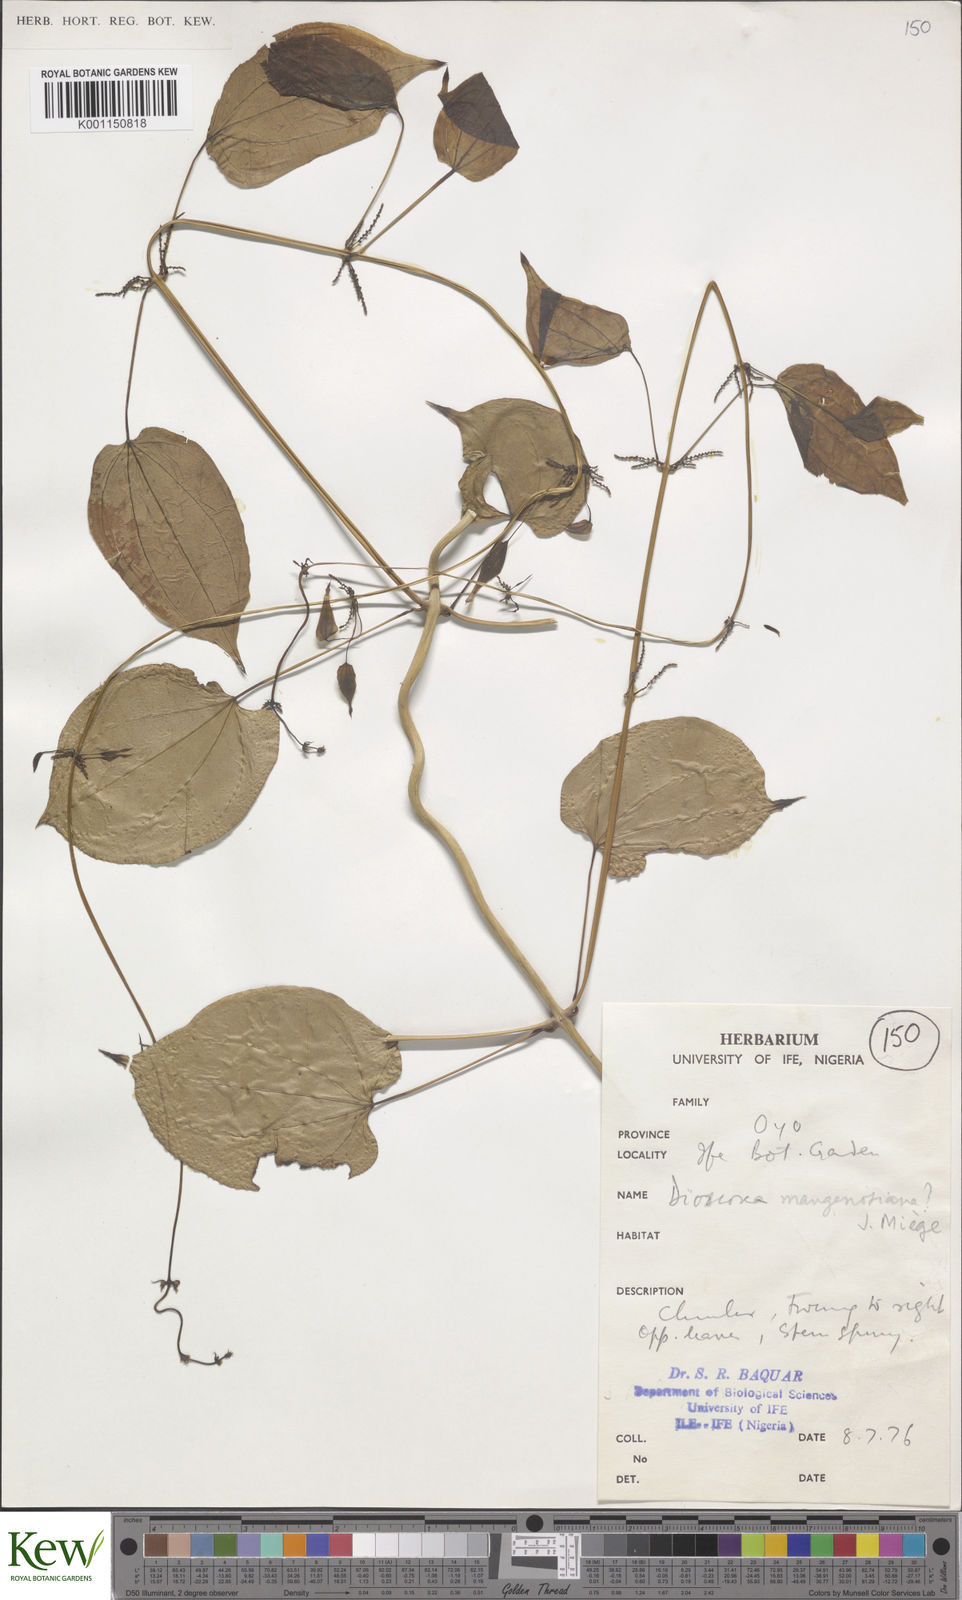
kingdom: Plantae
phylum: Tracheophyta
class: Liliopsida
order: Dioscoreales
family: Dioscoreaceae
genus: Dioscorea
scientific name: Dioscorea
